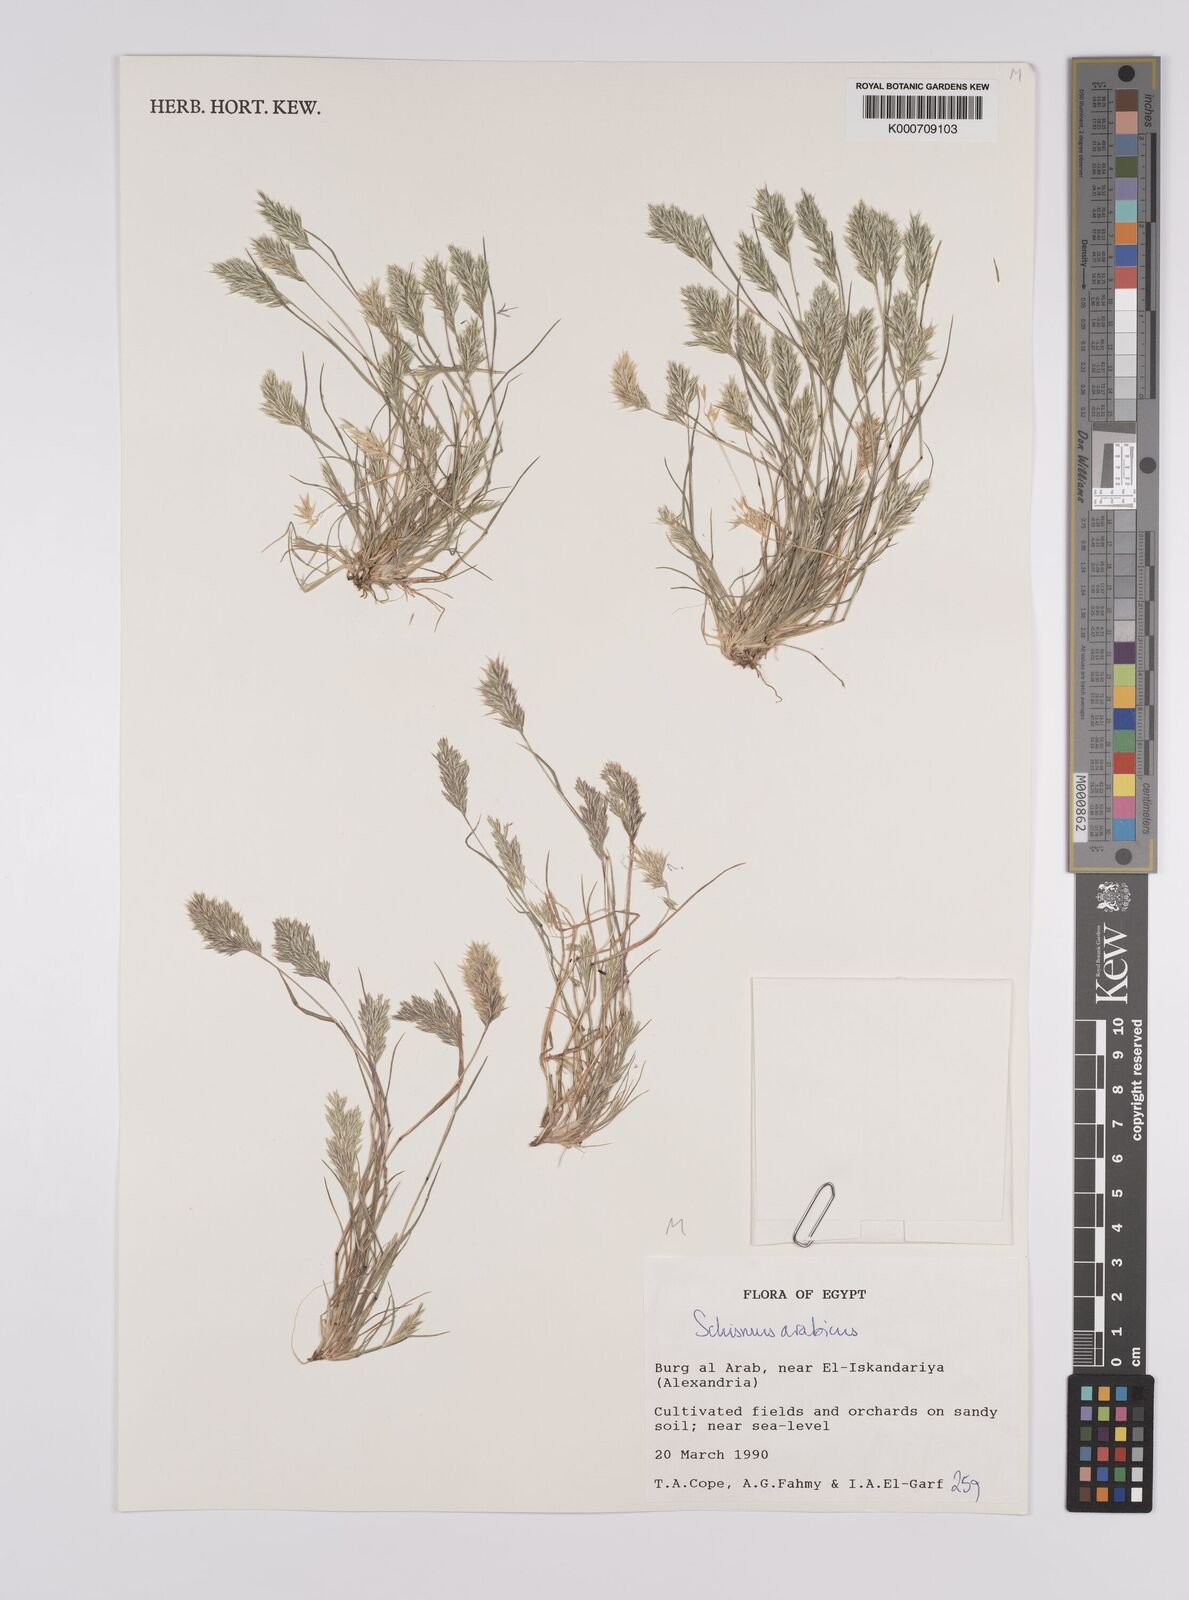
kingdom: Plantae
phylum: Tracheophyta
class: Liliopsida
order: Poales
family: Poaceae
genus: Schismus
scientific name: Schismus arabicus
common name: Arabian schismus
